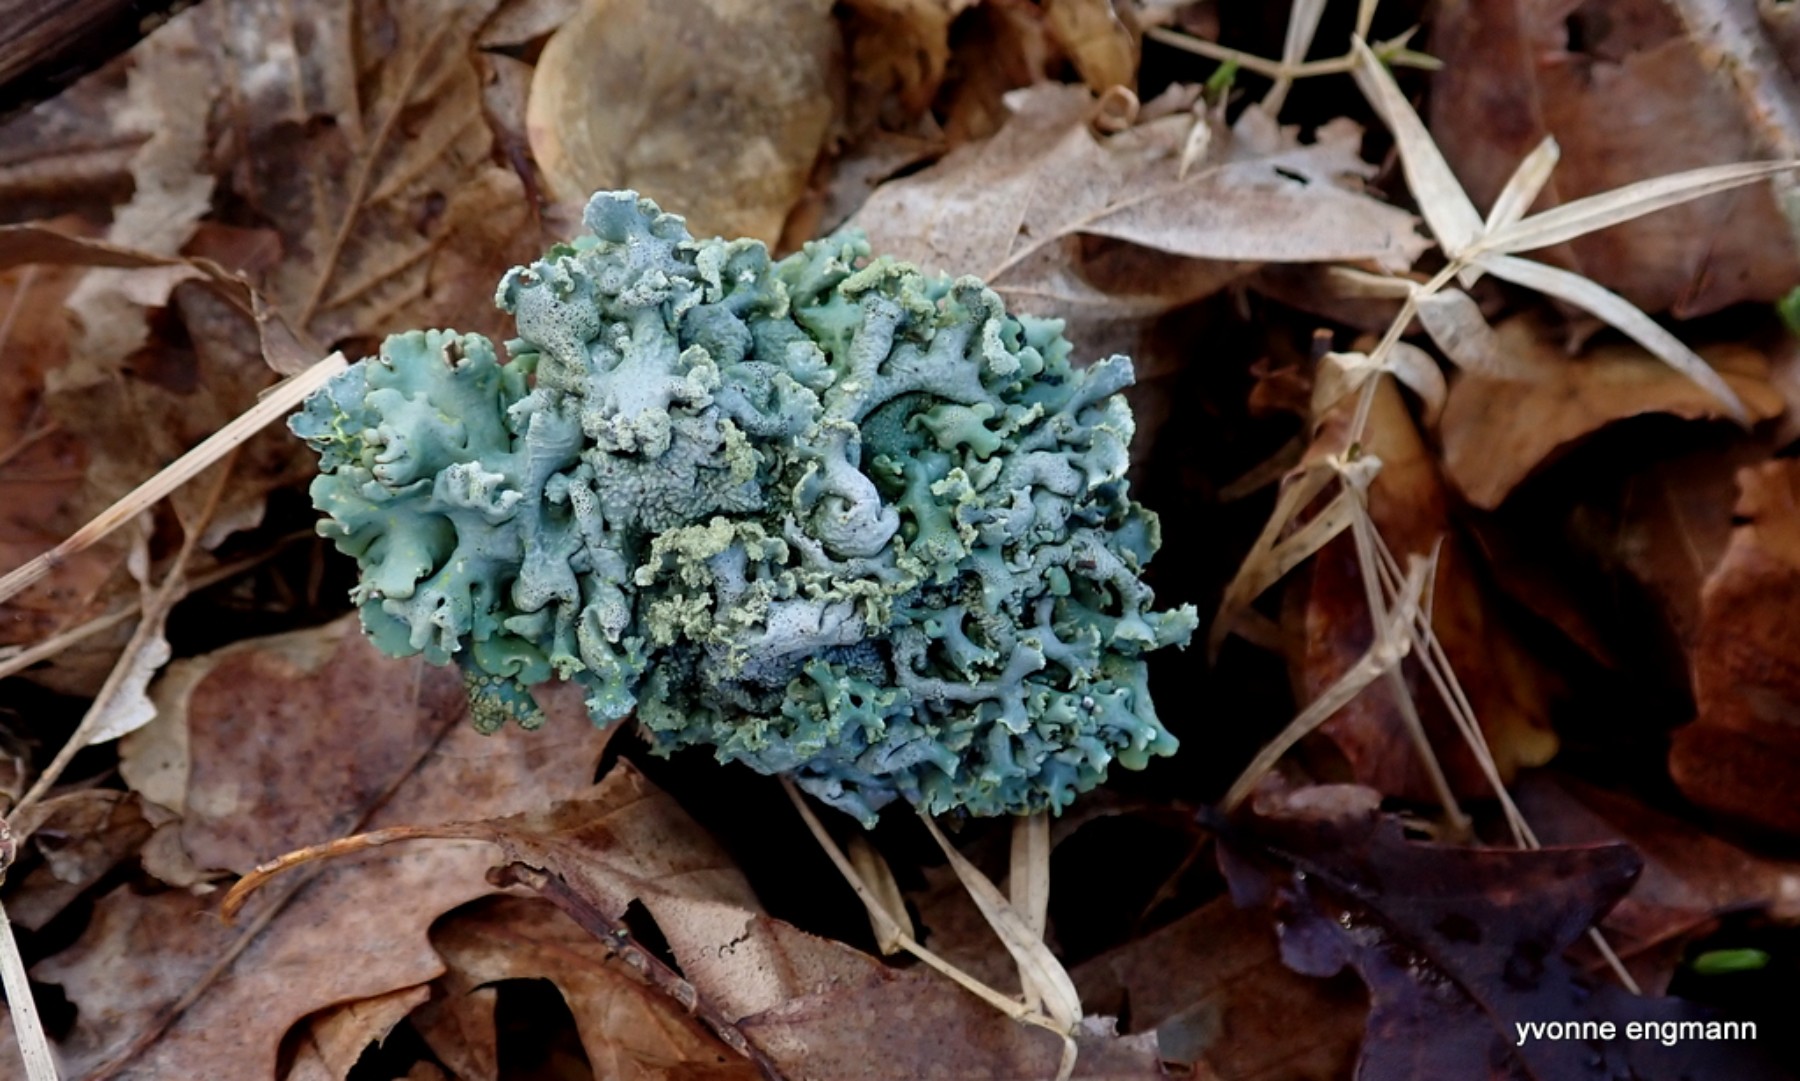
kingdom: Fungi
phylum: Ascomycota
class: Lecanoromycetes
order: Lecanorales
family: Parmeliaceae
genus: Hypogymnia
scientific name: Hypogymnia physodes
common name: almindelig kvistlav
